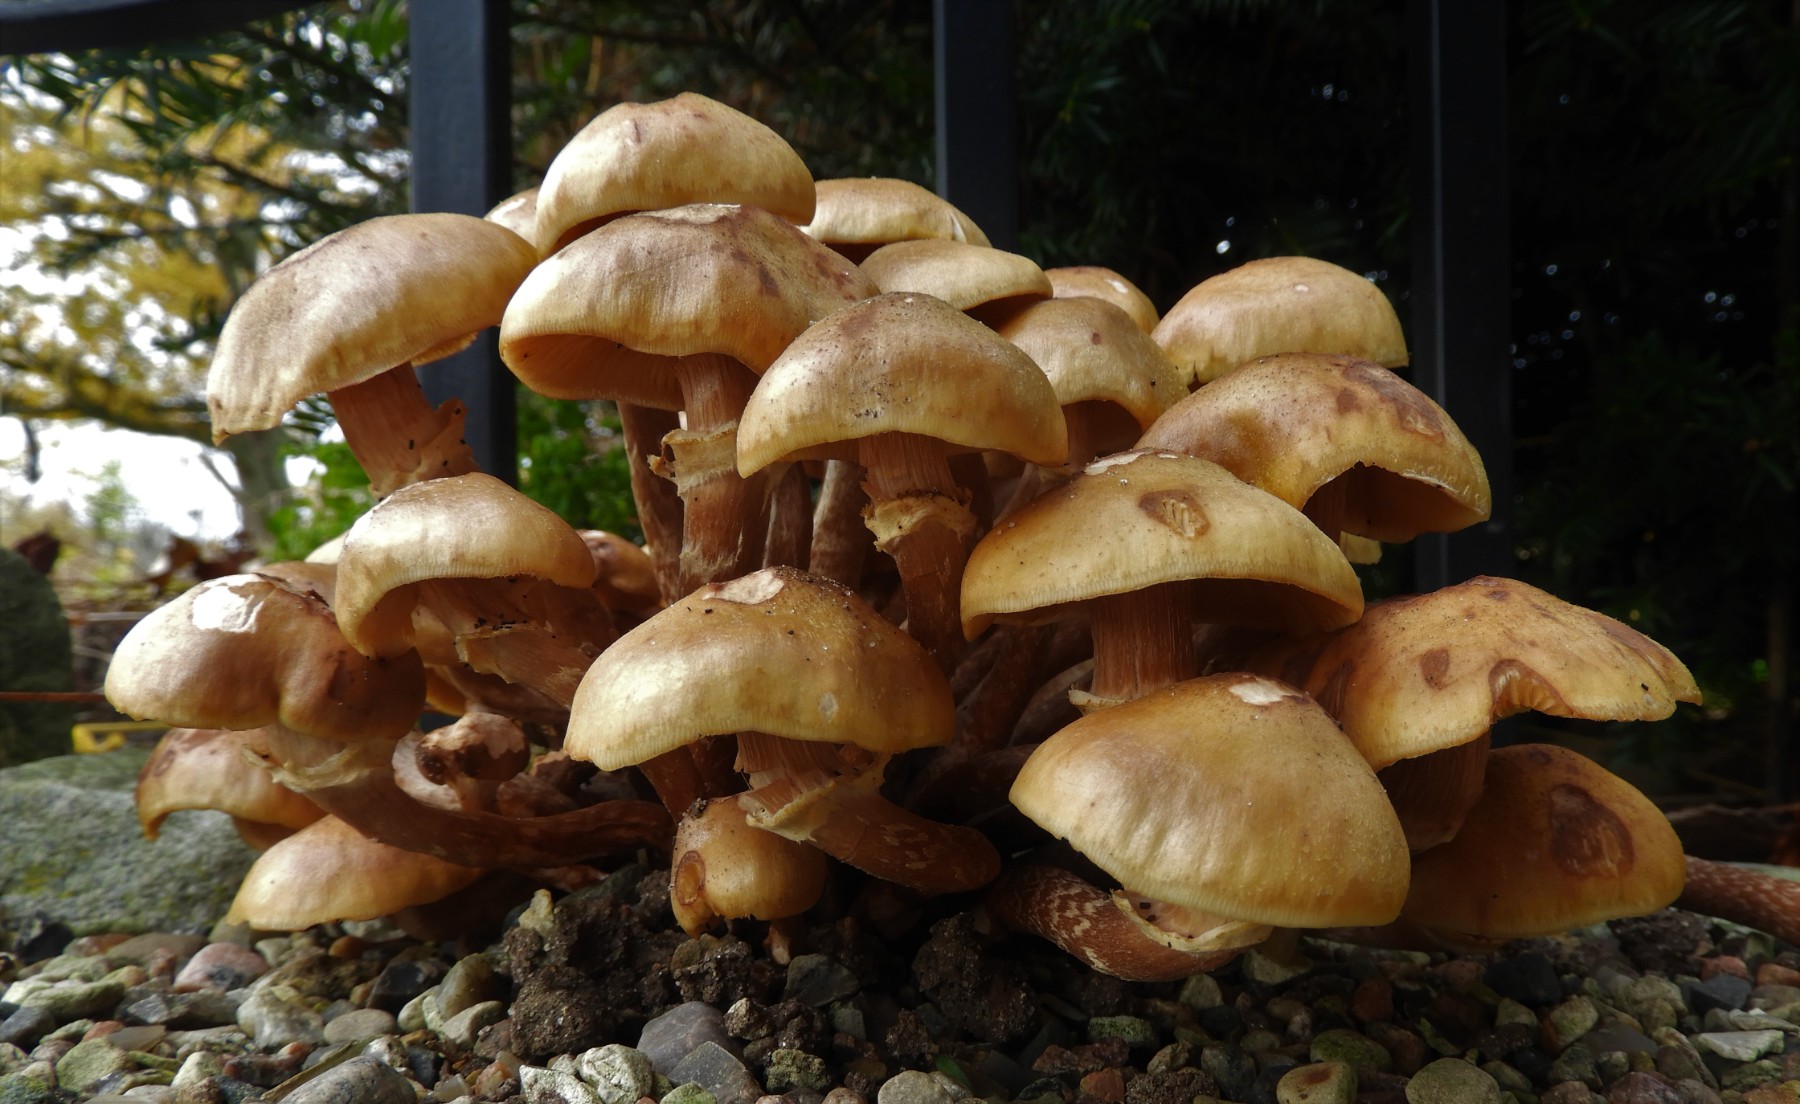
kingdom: Fungi
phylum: Basidiomycota
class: Agaricomycetes
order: Agaricales
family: Physalacriaceae
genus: Armillaria
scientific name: Armillaria mellea
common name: ægte honningsvamp
